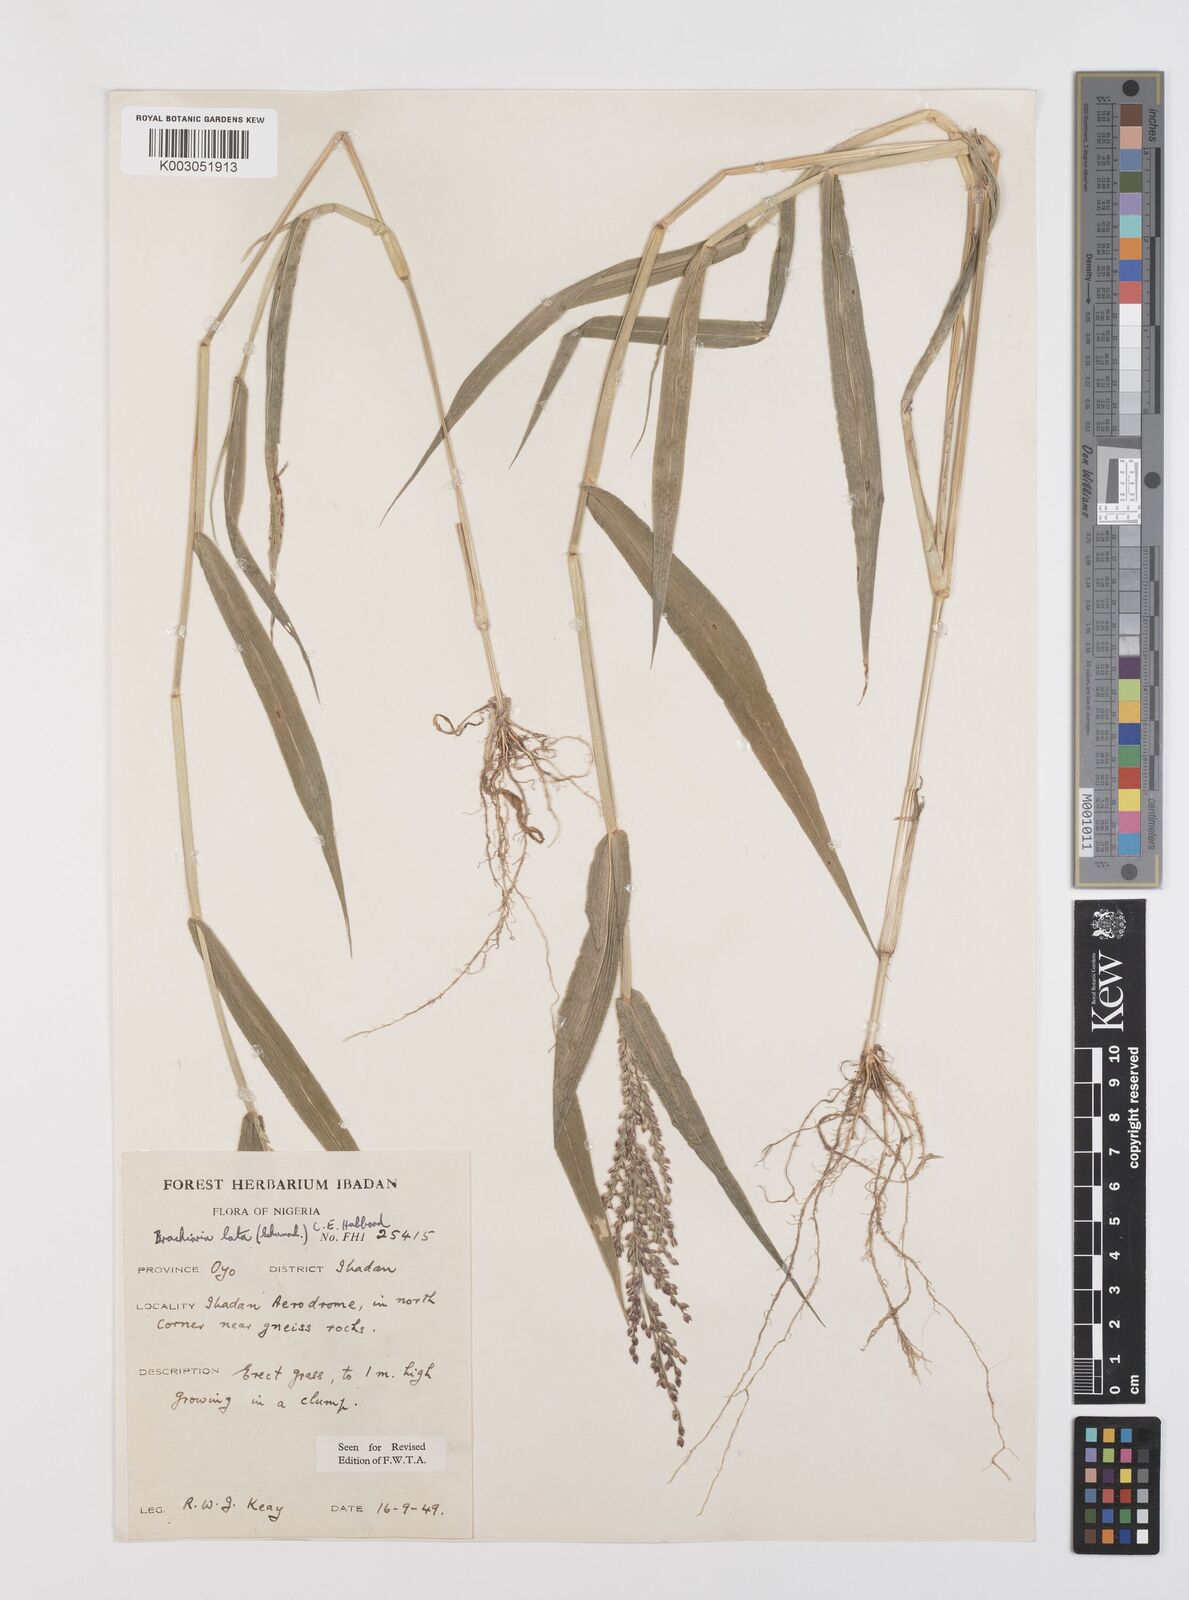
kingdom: Plantae
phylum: Tracheophyta
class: Liliopsida
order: Poales
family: Poaceae
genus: Urochloa
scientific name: Urochloa lata
